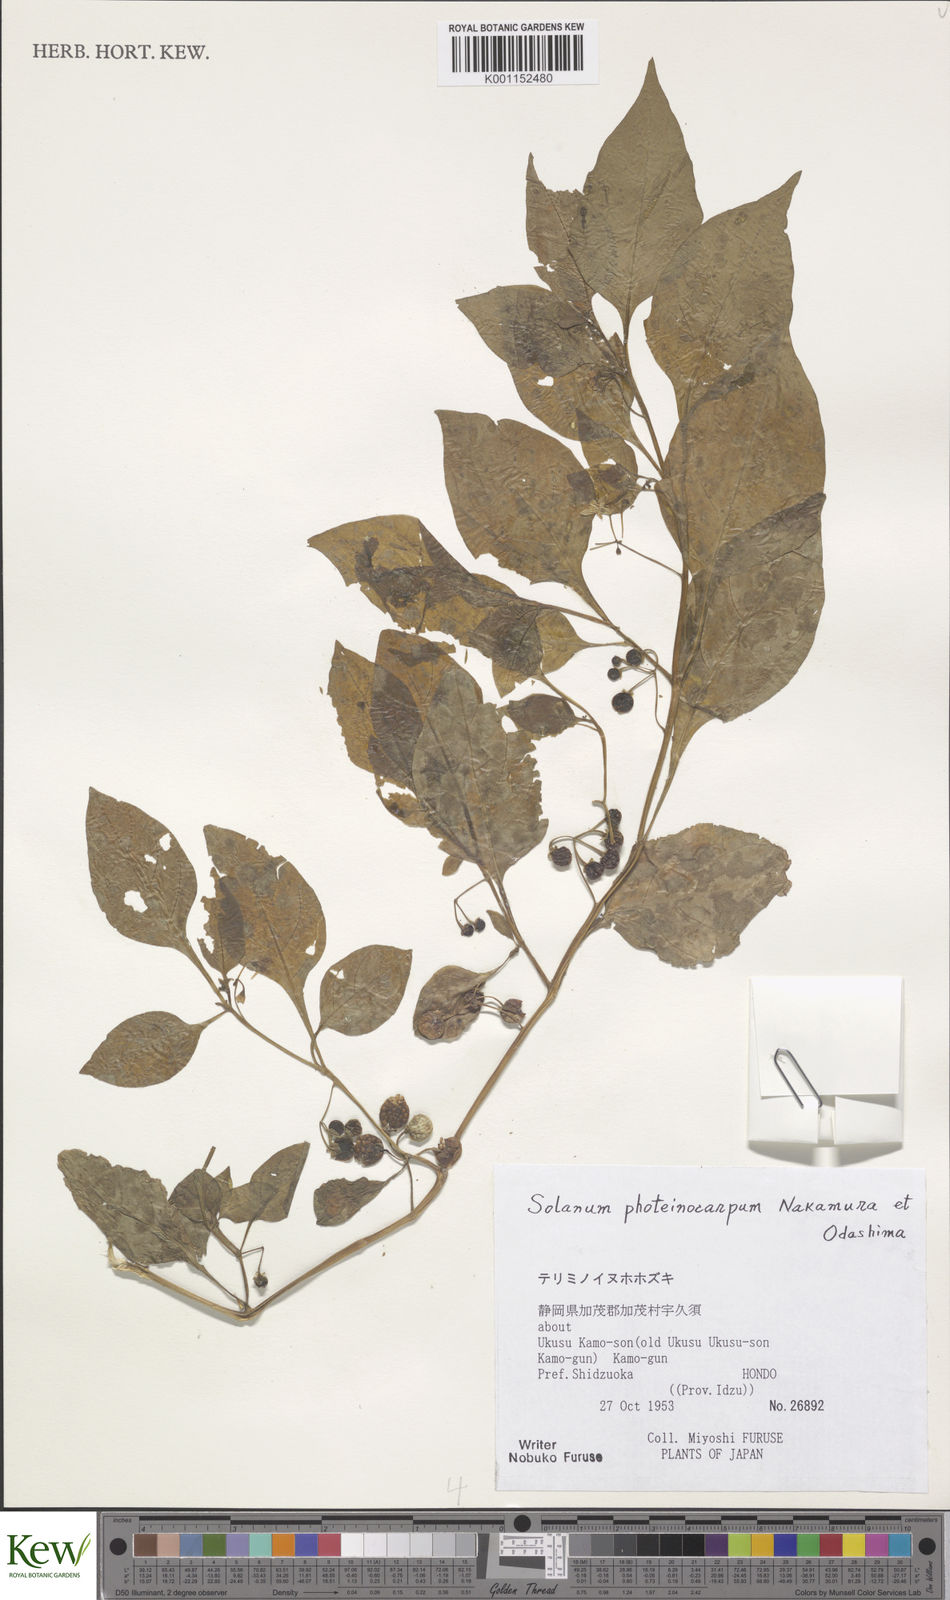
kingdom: Plantae
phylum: Tracheophyta
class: Magnoliopsida
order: Solanales
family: Solanaceae
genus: Solanum
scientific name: Solanum americanum
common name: American black nightshade
